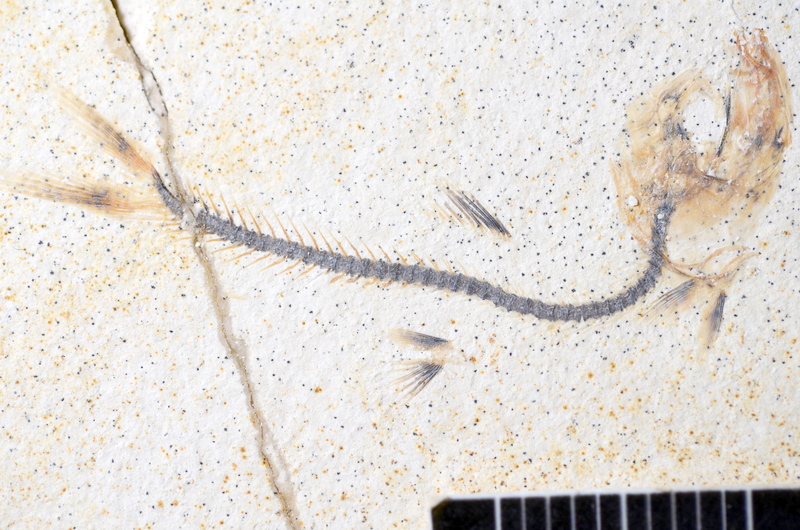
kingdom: Animalia
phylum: Chordata
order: Salmoniformes
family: Orthogonikleithridae
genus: Orthogonikleithrus
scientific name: Orthogonikleithrus hoelli
